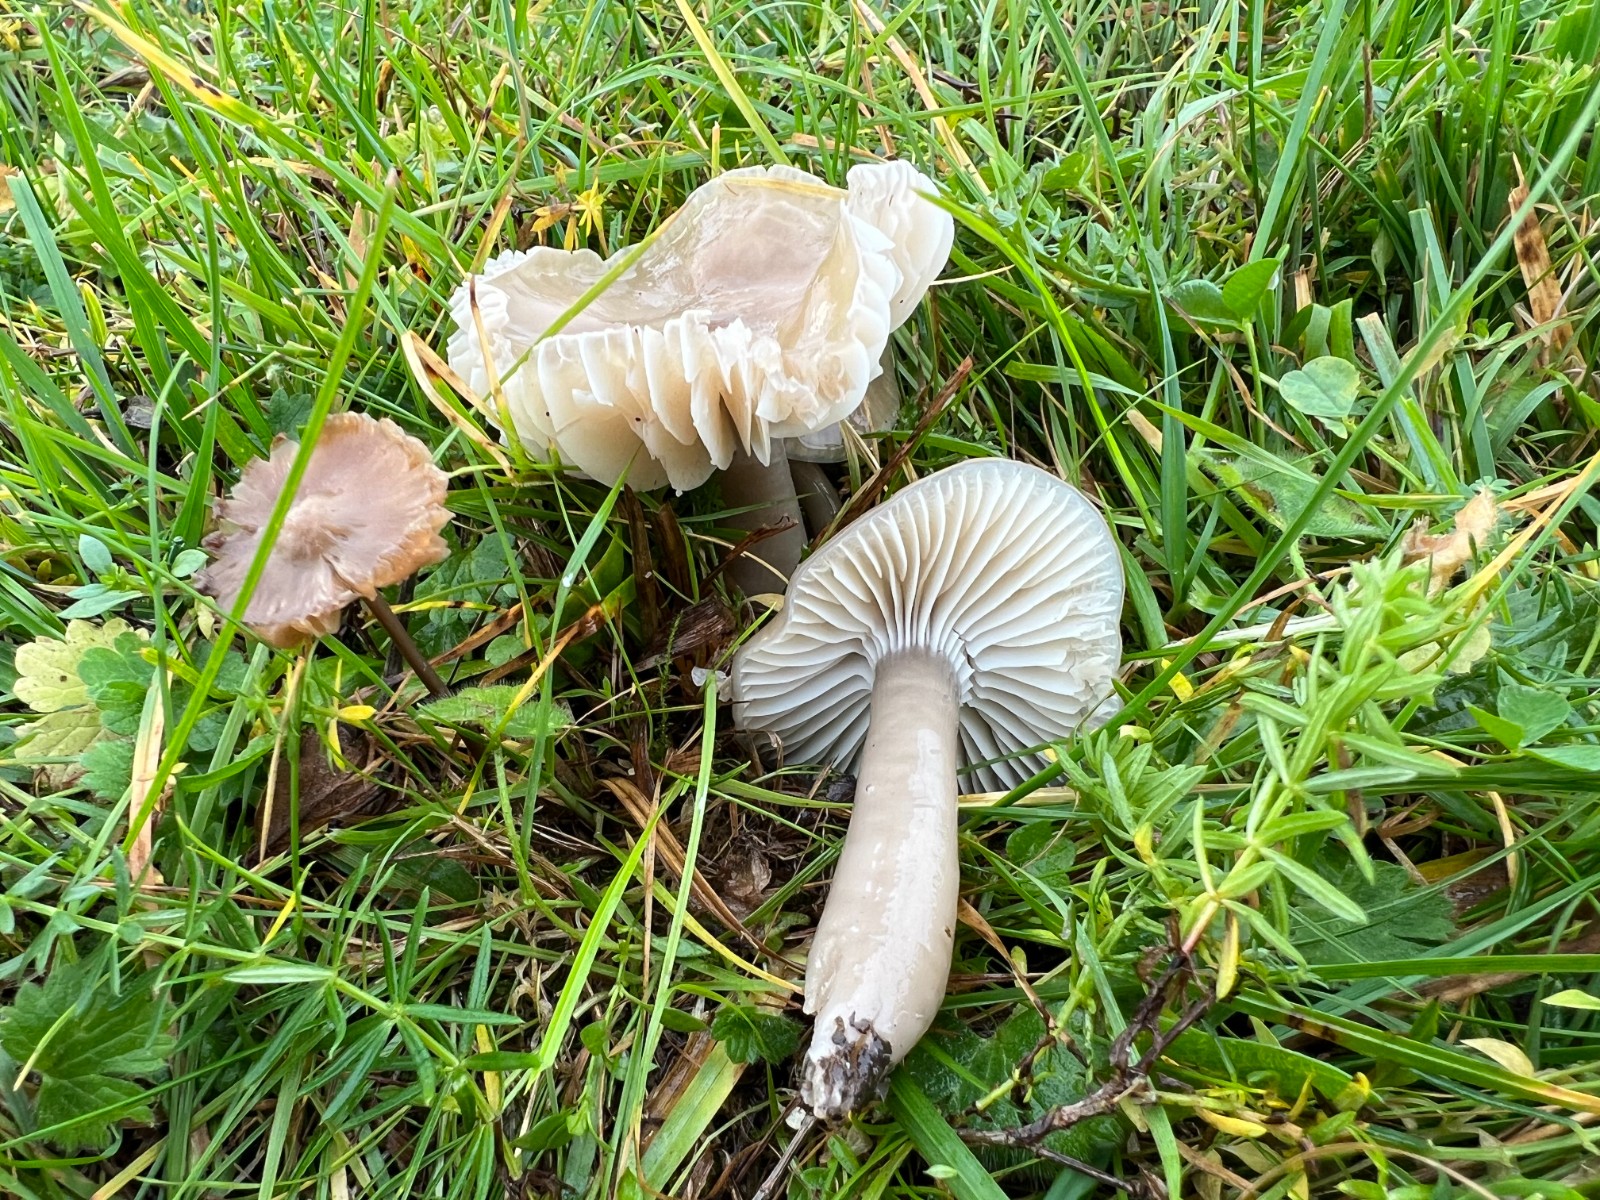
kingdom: Fungi
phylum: Basidiomycota
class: Agaricomycetes
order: Agaricales
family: Hygrophoraceae
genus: Gliophorus
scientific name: Gliophorus irrigatus
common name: slimet vokshat
